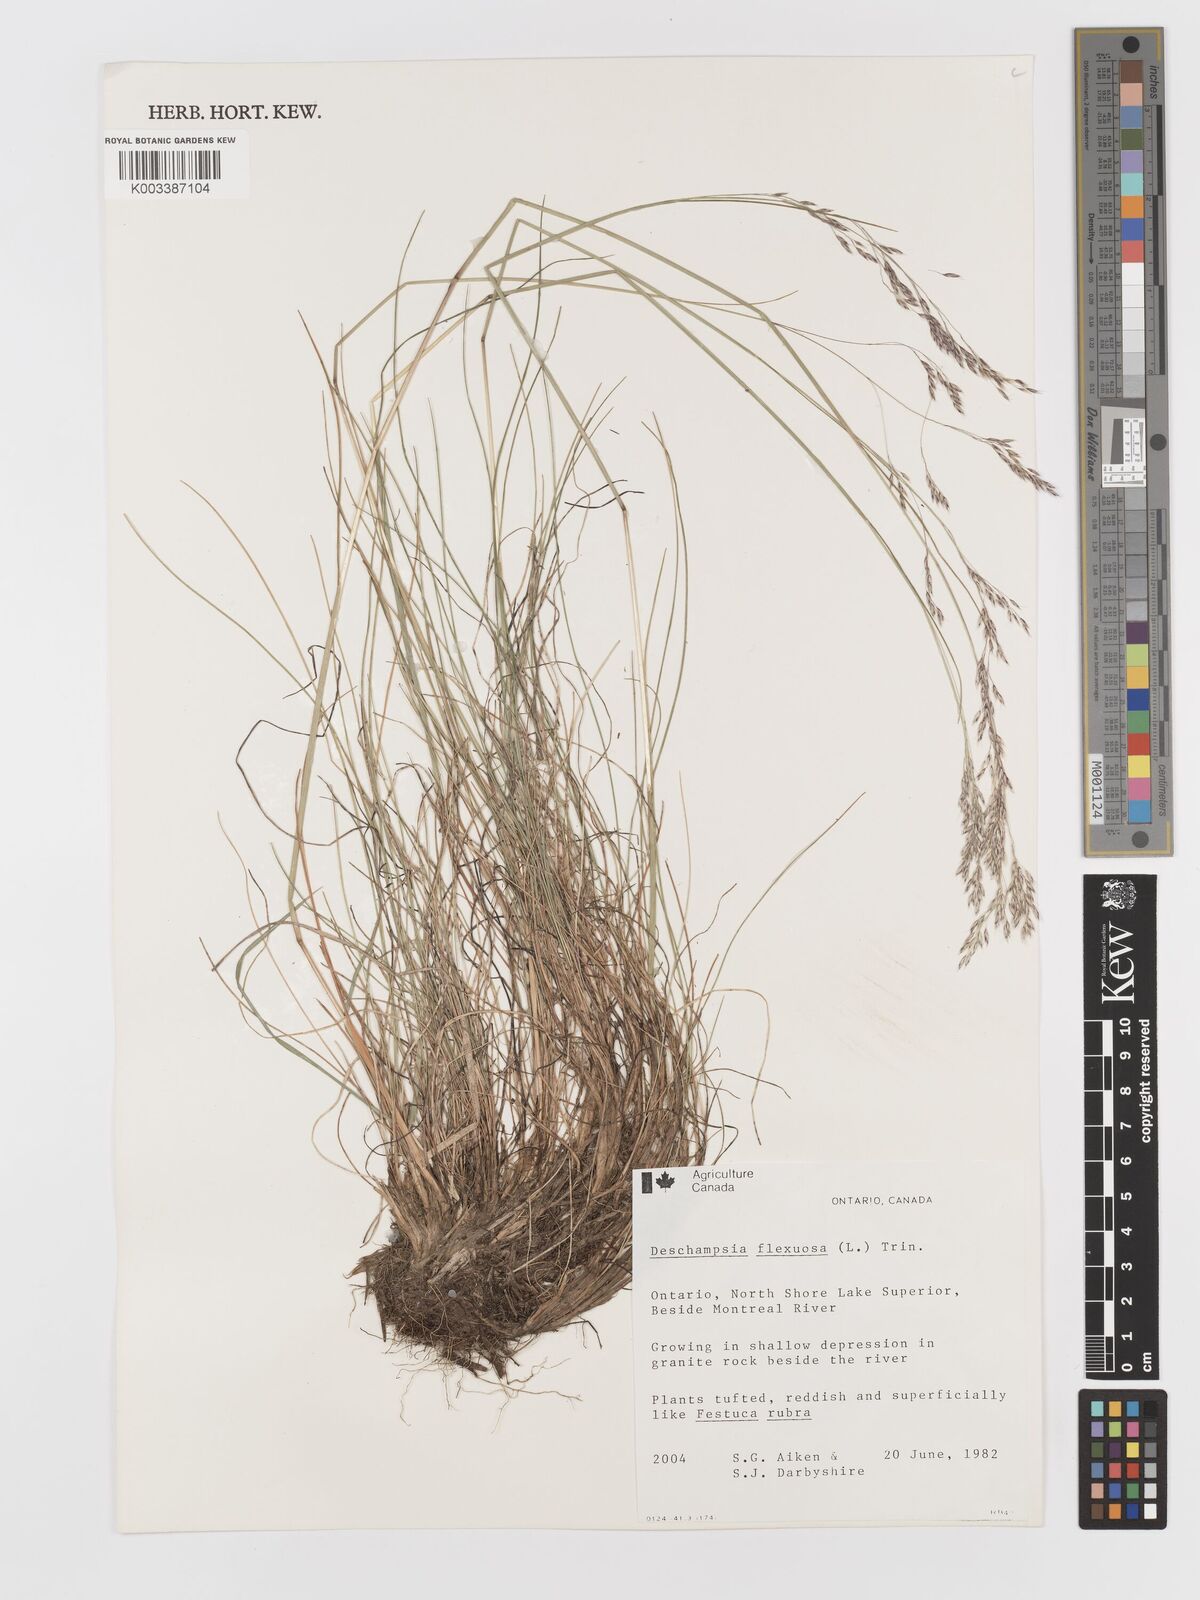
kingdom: Plantae
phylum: Tracheophyta
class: Liliopsida
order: Poales
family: Poaceae
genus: Avenella
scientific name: Avenella flexuosa
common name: Wavy hairgrass
